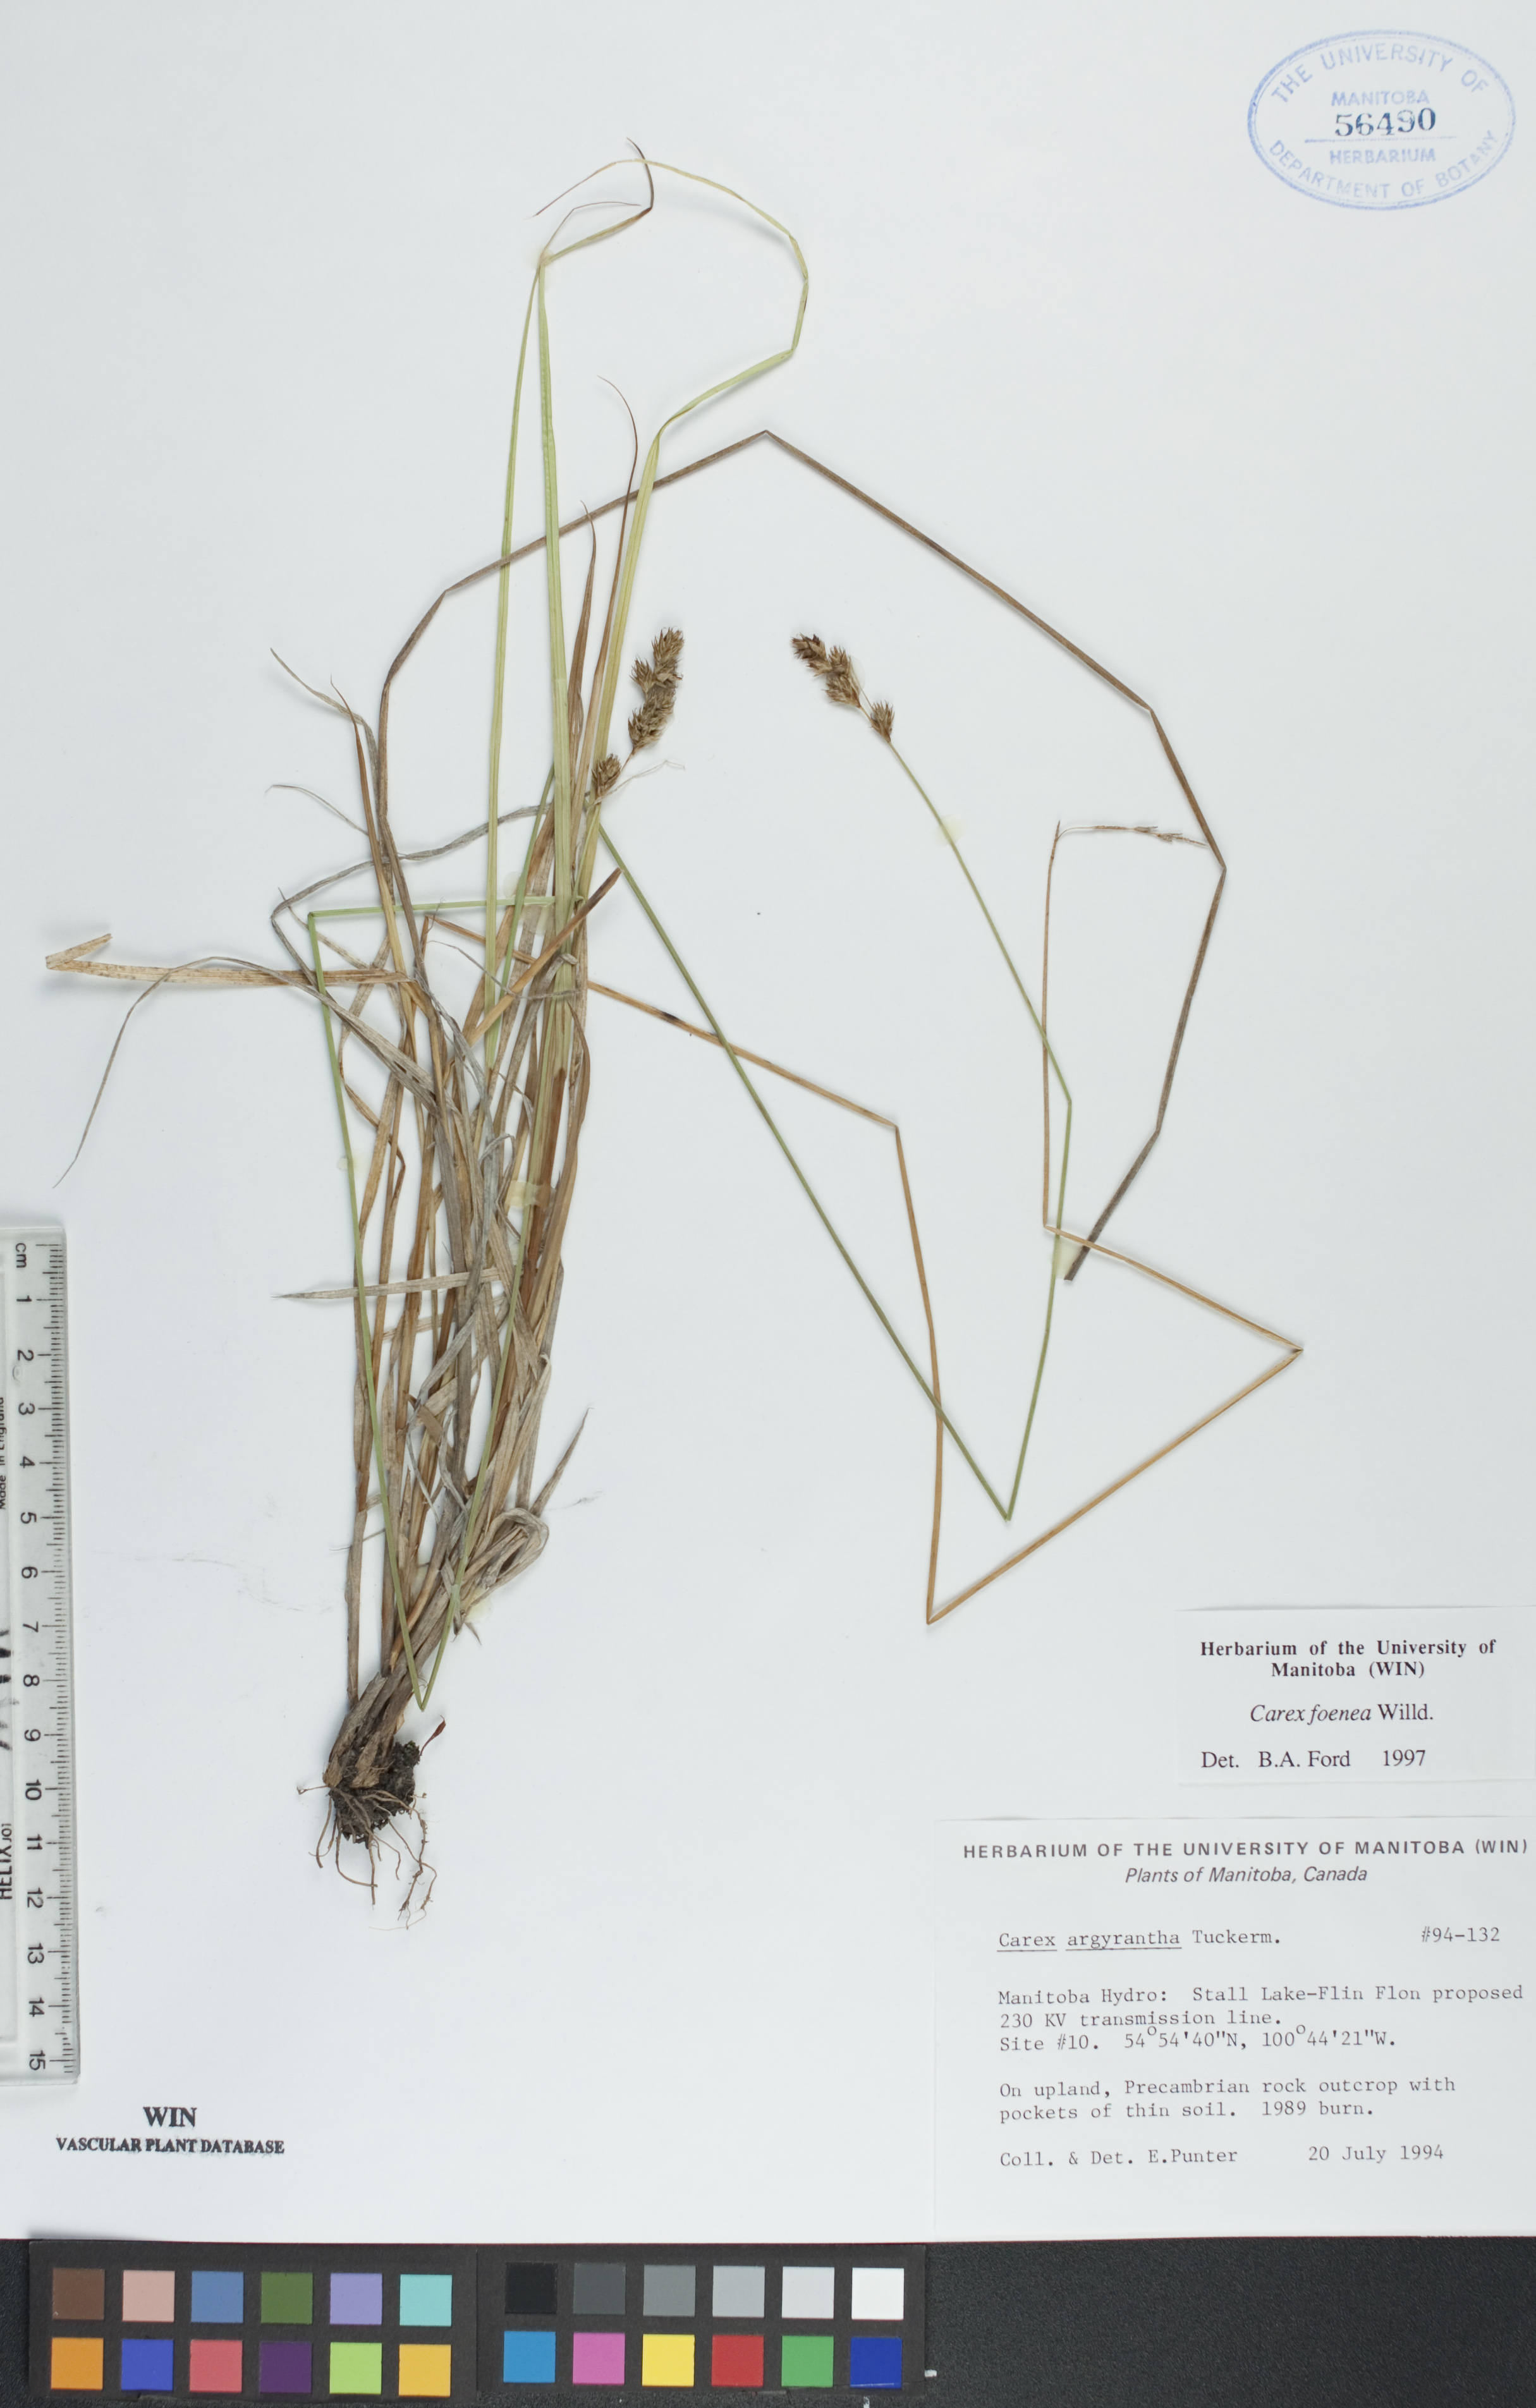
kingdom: Plantae
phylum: Tracheophyta
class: Liliopsida
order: Poales
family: Cyperaceae
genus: Carex
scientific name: Carex foenea
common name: Bronze sedge
